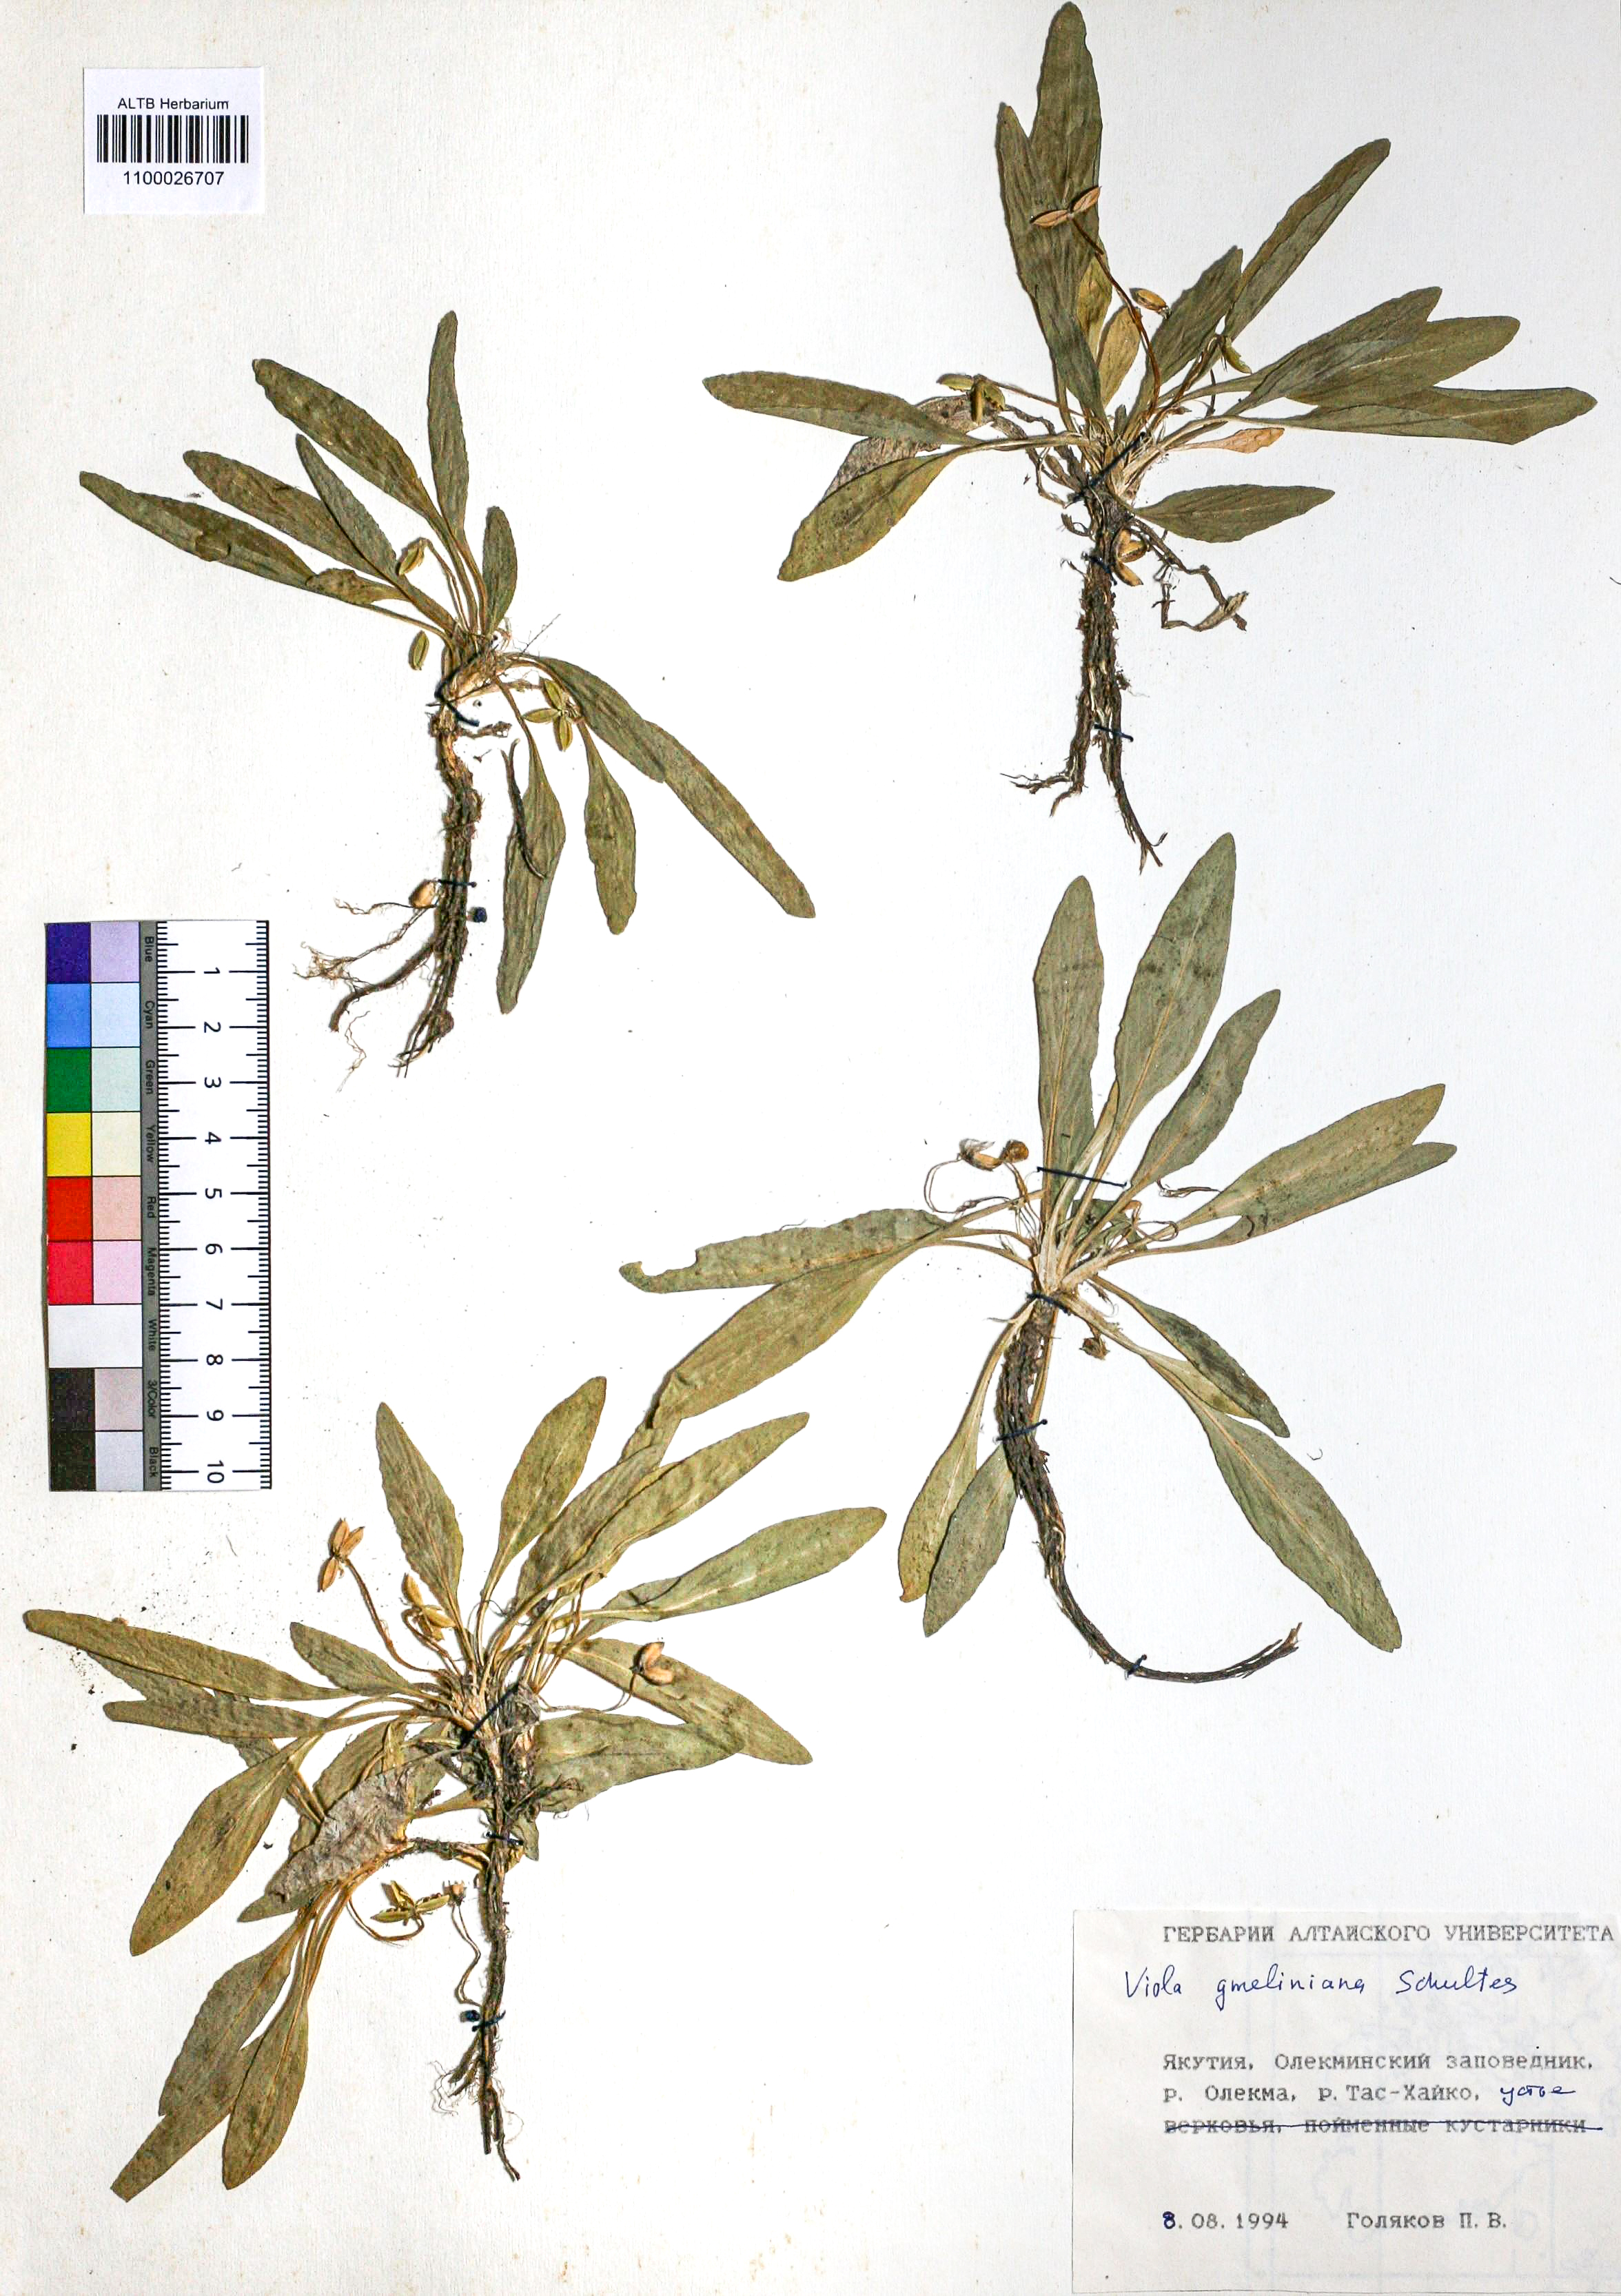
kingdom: Plantae
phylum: Tracheophyta
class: Magnoliopsida
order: Malpighiales
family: Violaceae
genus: Viola
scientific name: Viola gmeliniana
